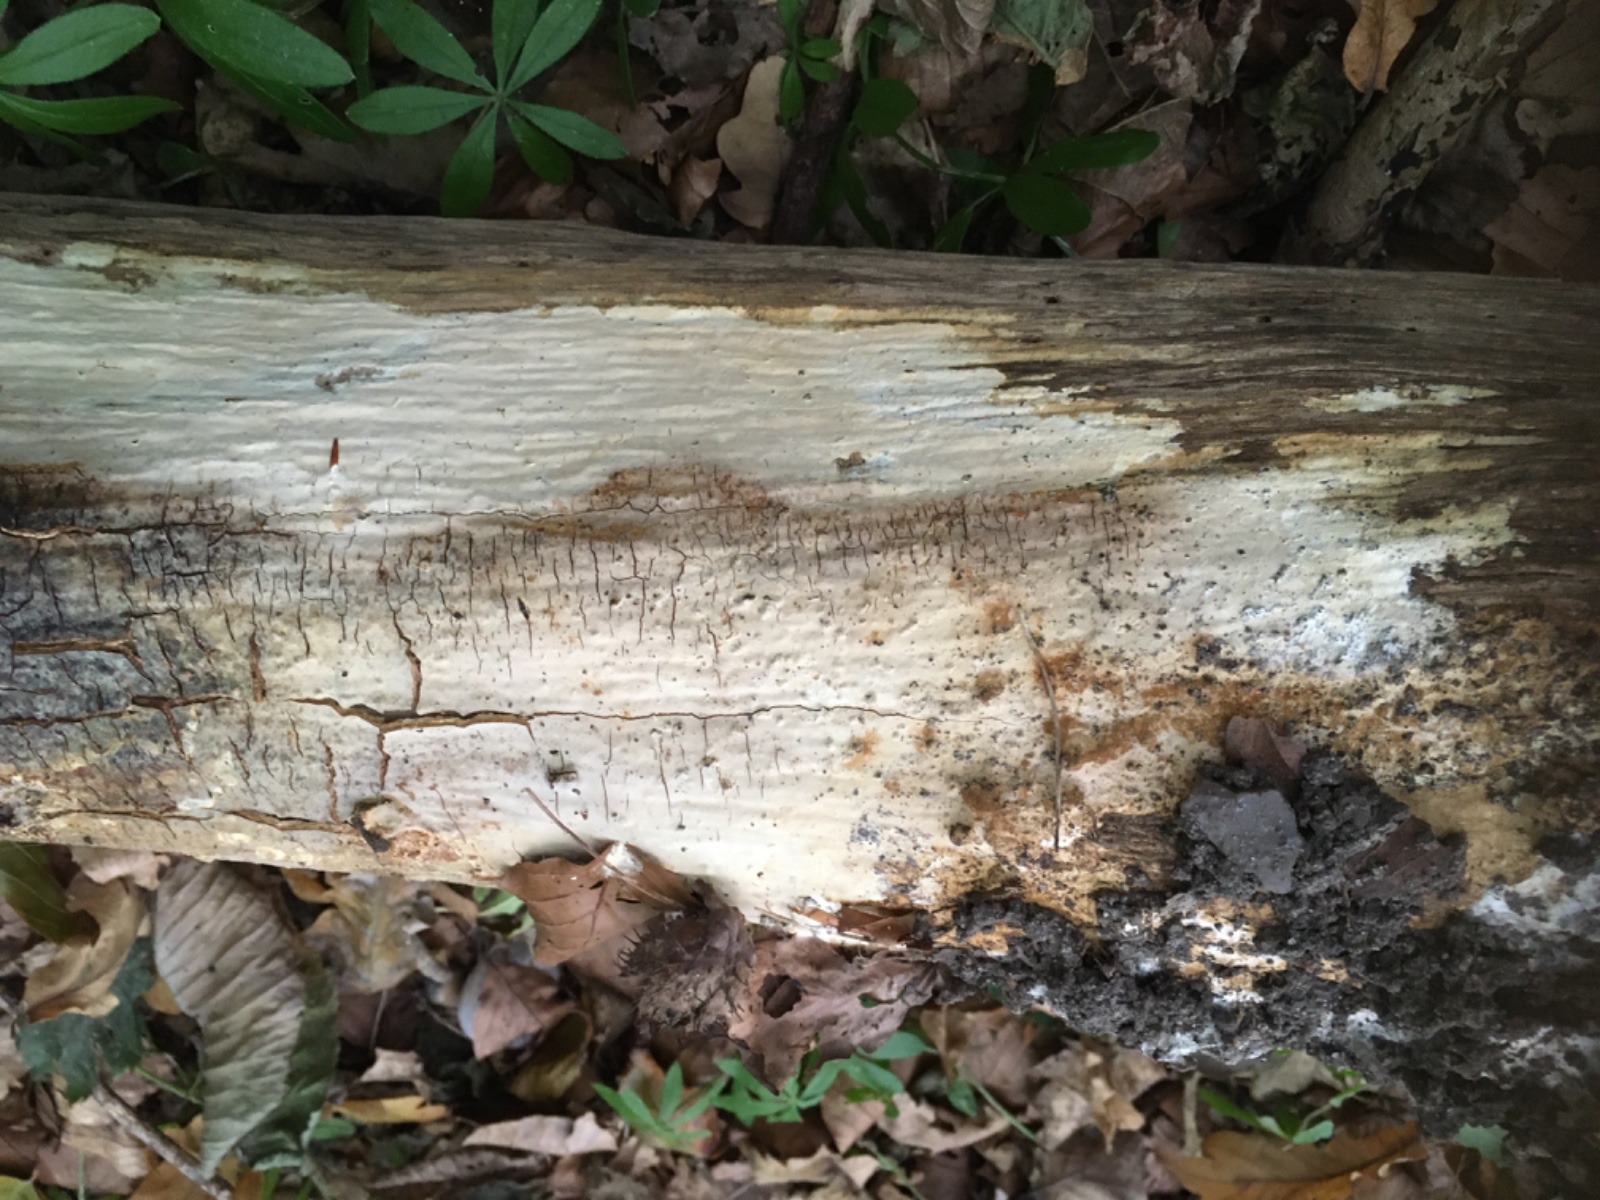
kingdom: Fungi
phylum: Basidiomycota
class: Agaricomycetes
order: Russulales
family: Peniophoraceae
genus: Scytinostroma
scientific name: Scytinostroma hemidichophyticum
